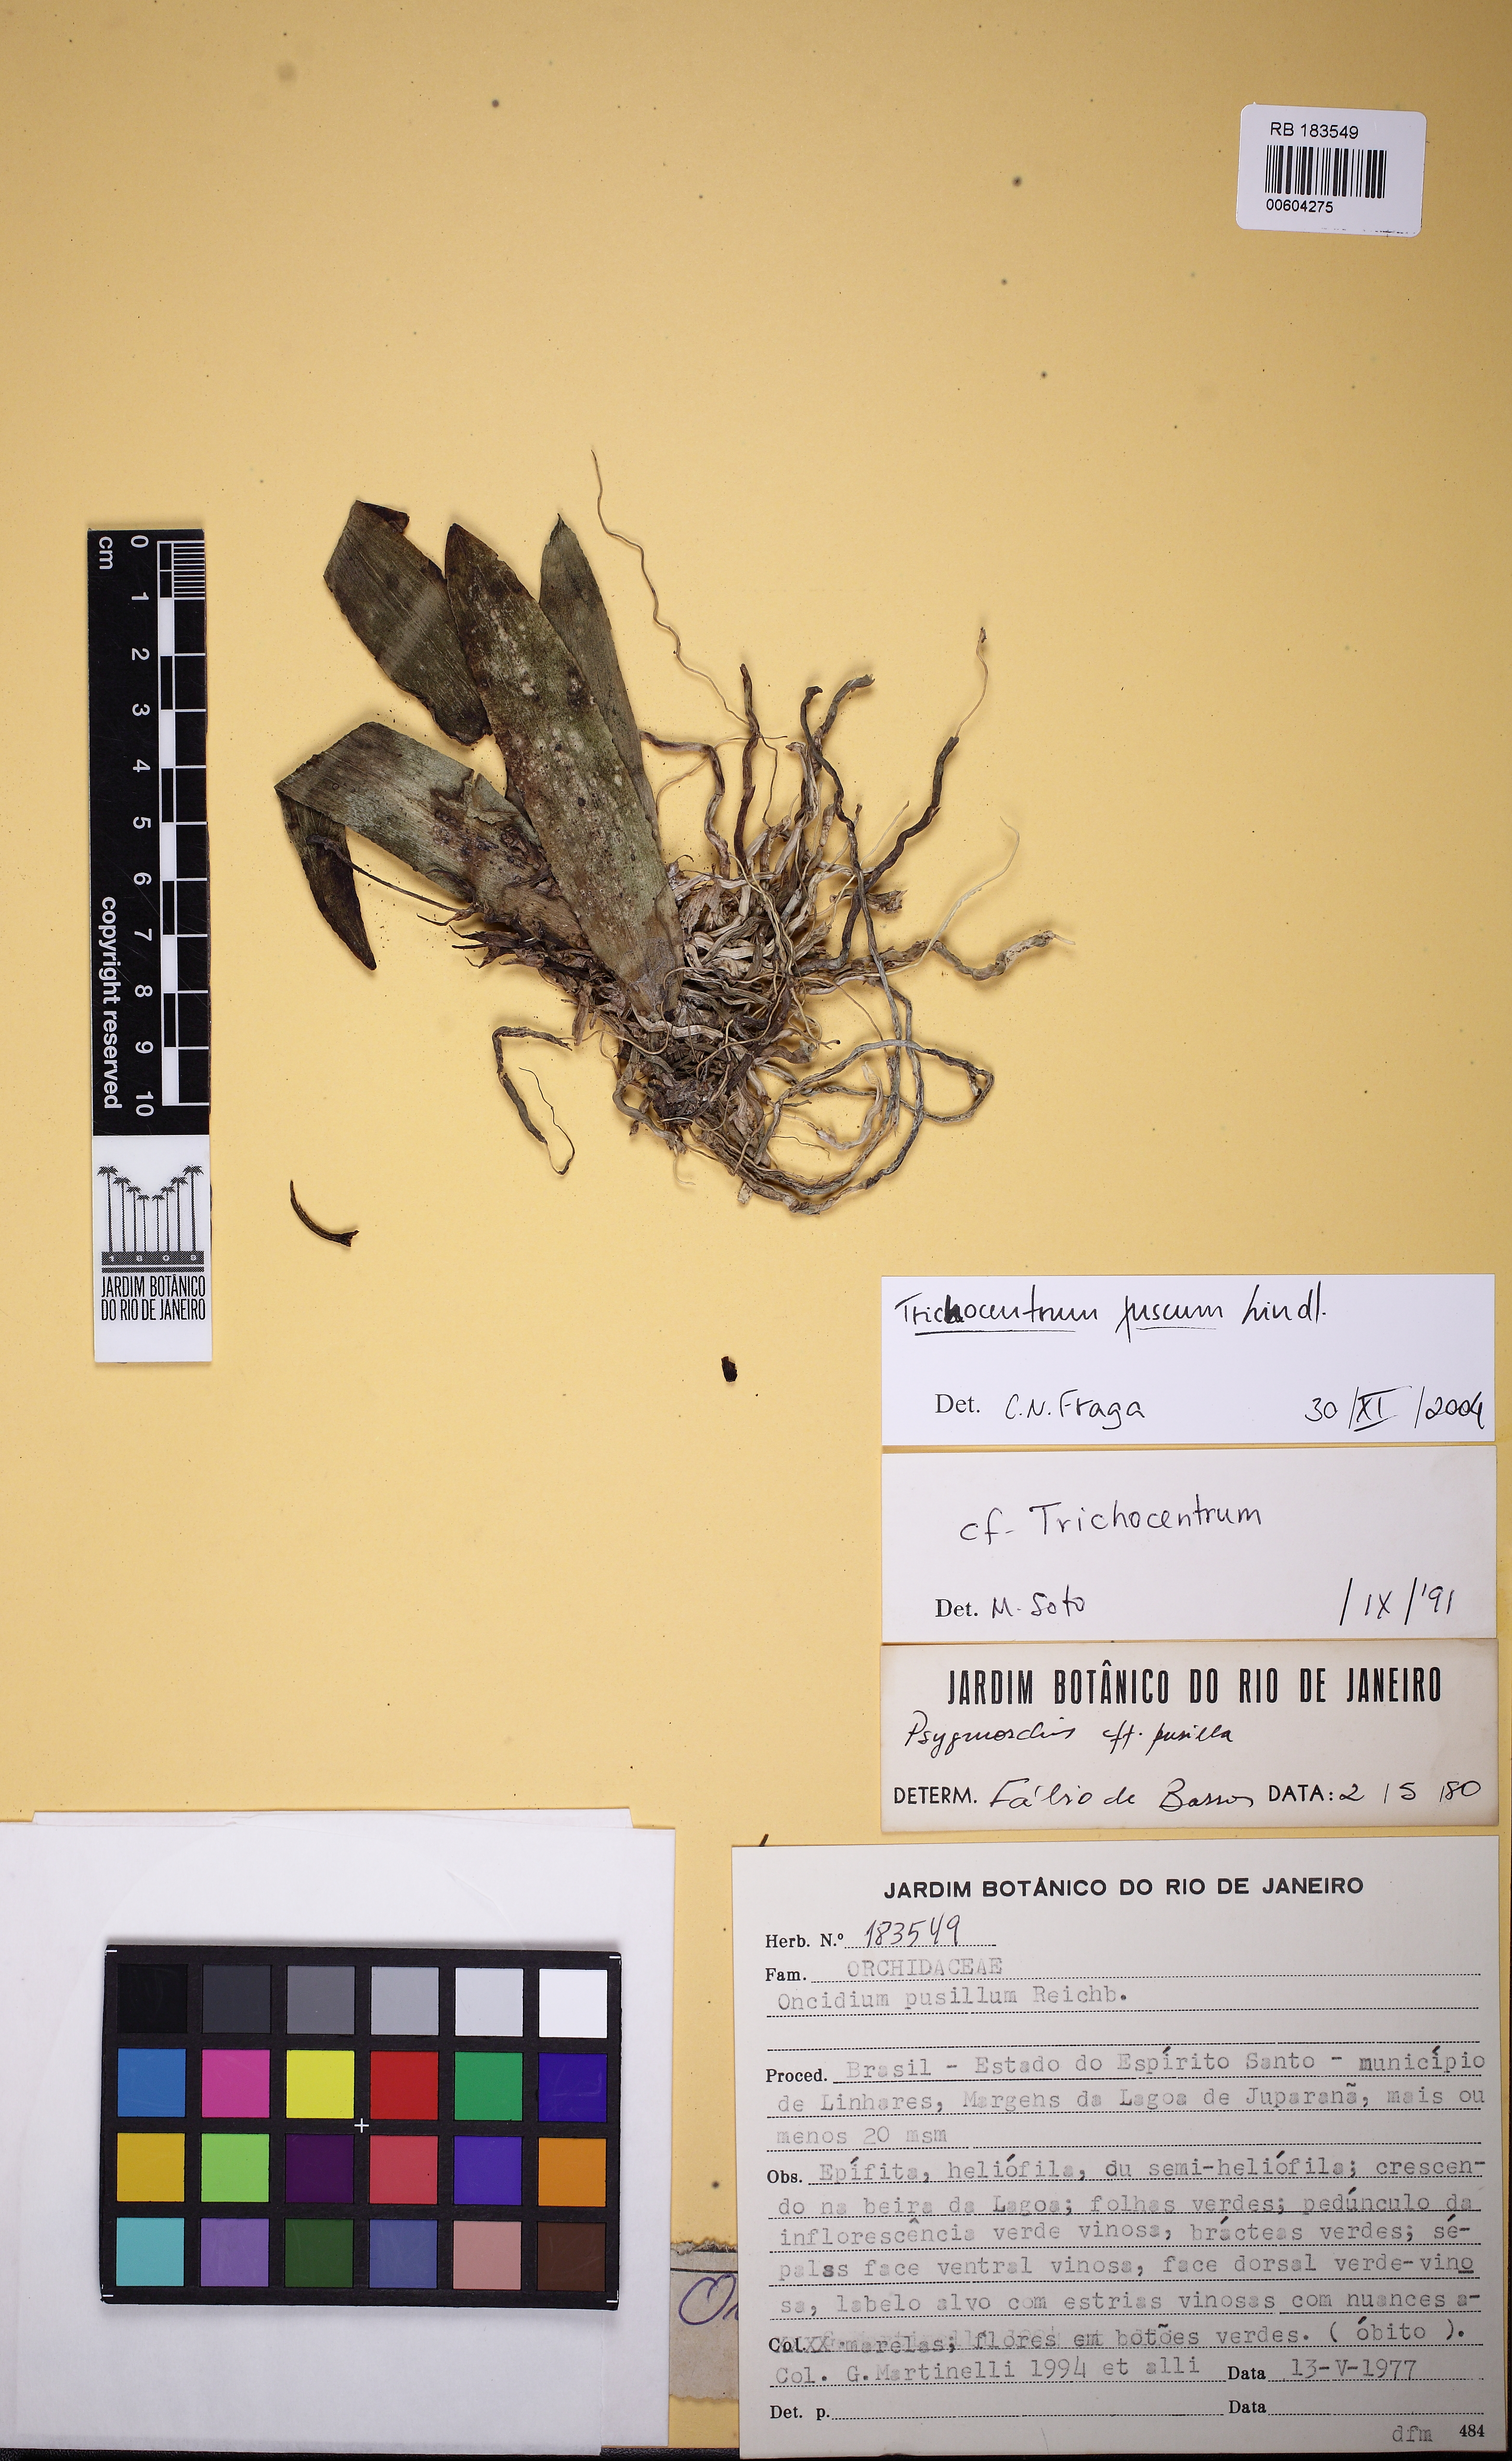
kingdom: Plantae
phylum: Tracheophyta
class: Liliopsida
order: Asparagales
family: Orchidaceae
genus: Trichocentrum
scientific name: Trichocentrum fuscum
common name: Mule-ear orchid
